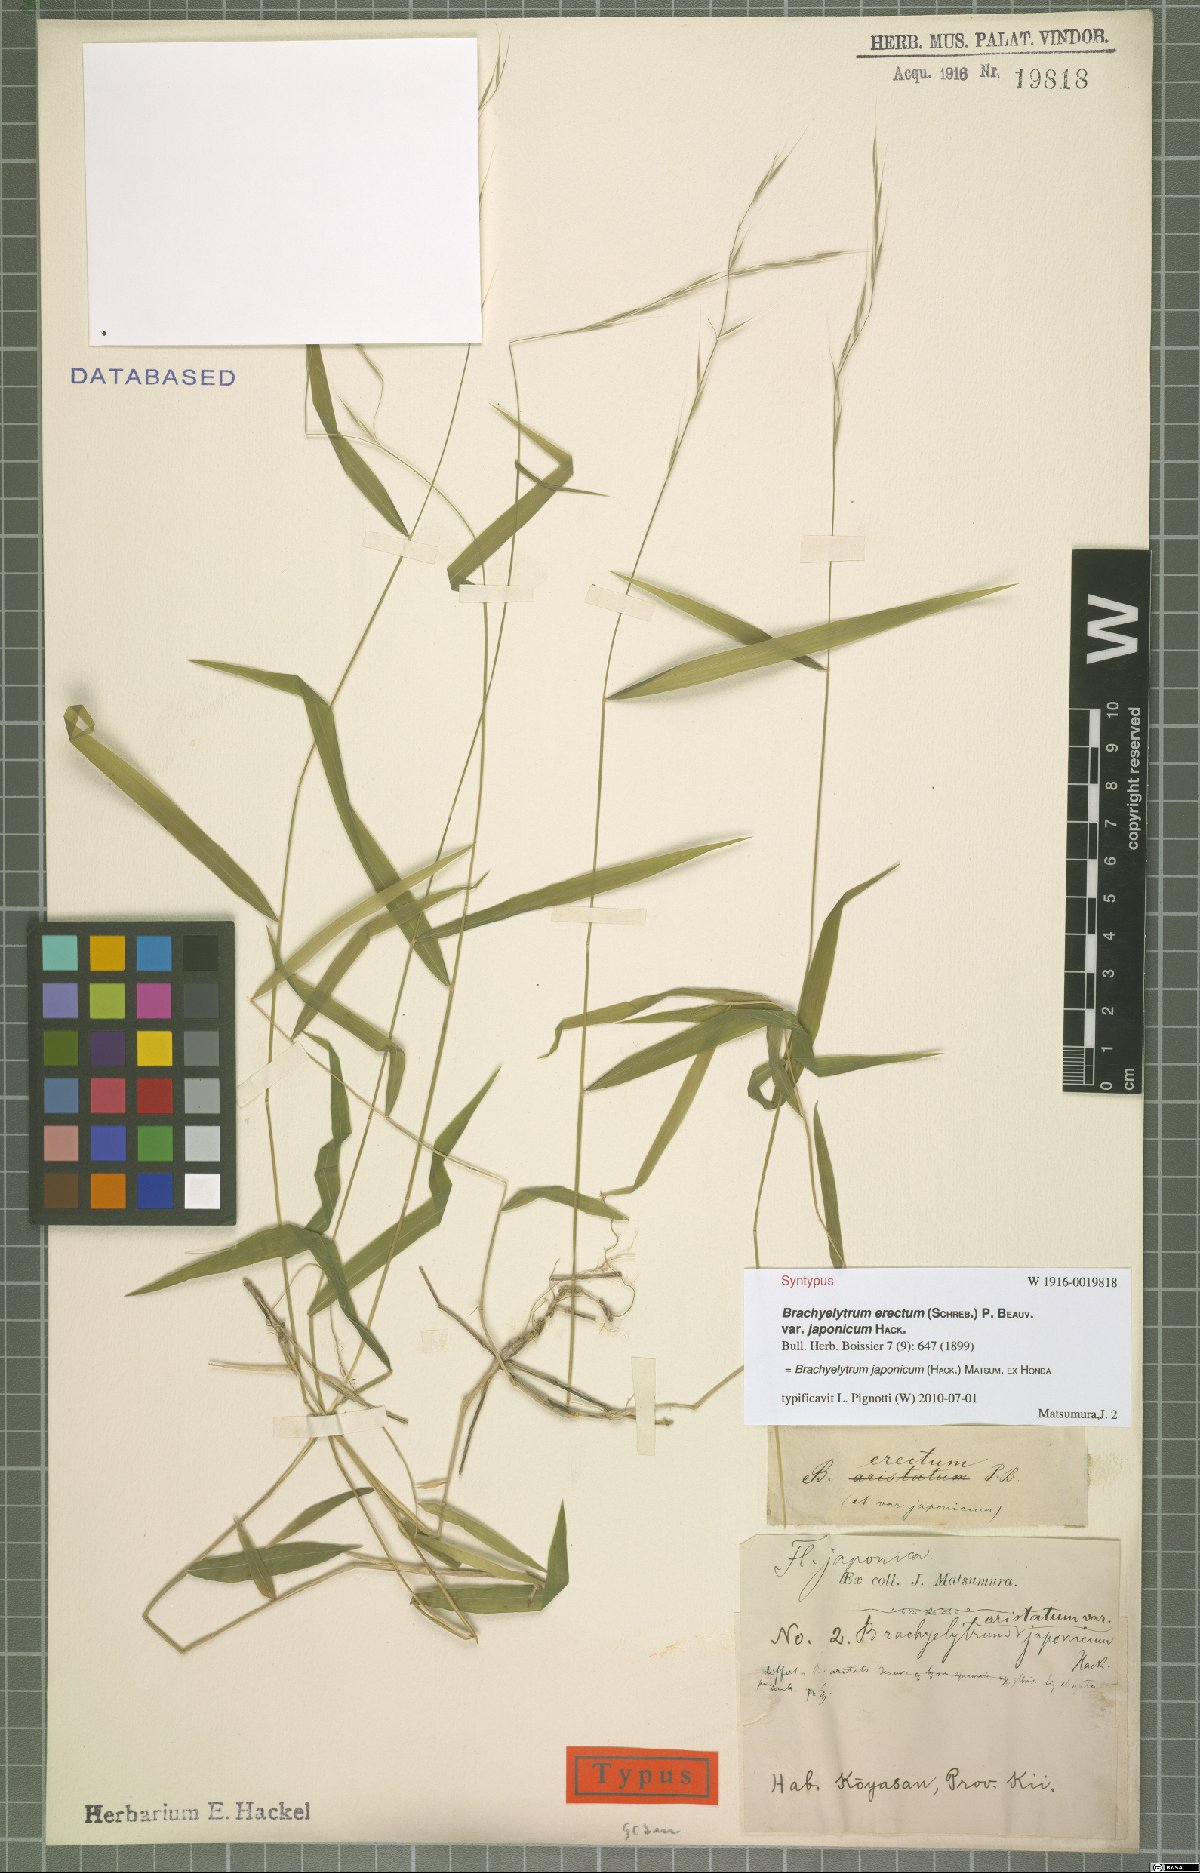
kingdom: Plantae
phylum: Tracheophyta
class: Liliopsida
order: Poales
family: Poaceae
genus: Brachyelytrum
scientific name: Brachyelytrum japonicum
